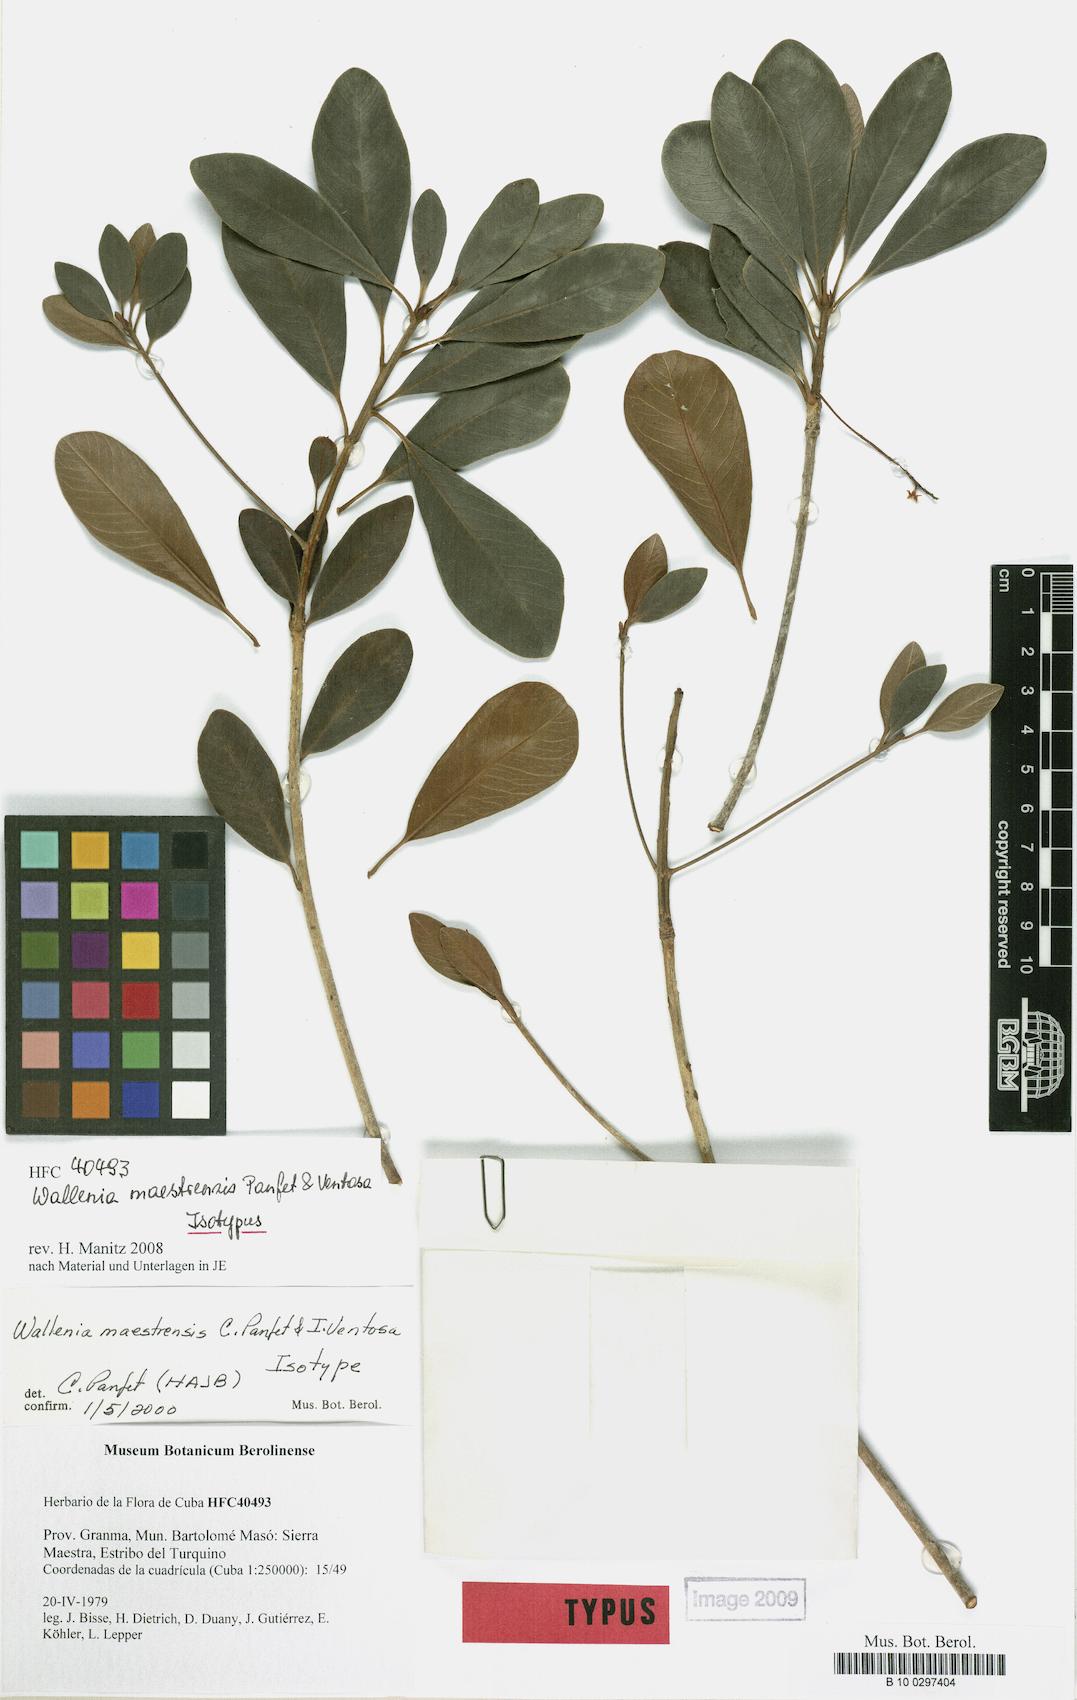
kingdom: Plantae
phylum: Tracheophyta
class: Magnoliopsida
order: Ericales
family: Primulaceae
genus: Wallenia
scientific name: Wallenia maestrensis
